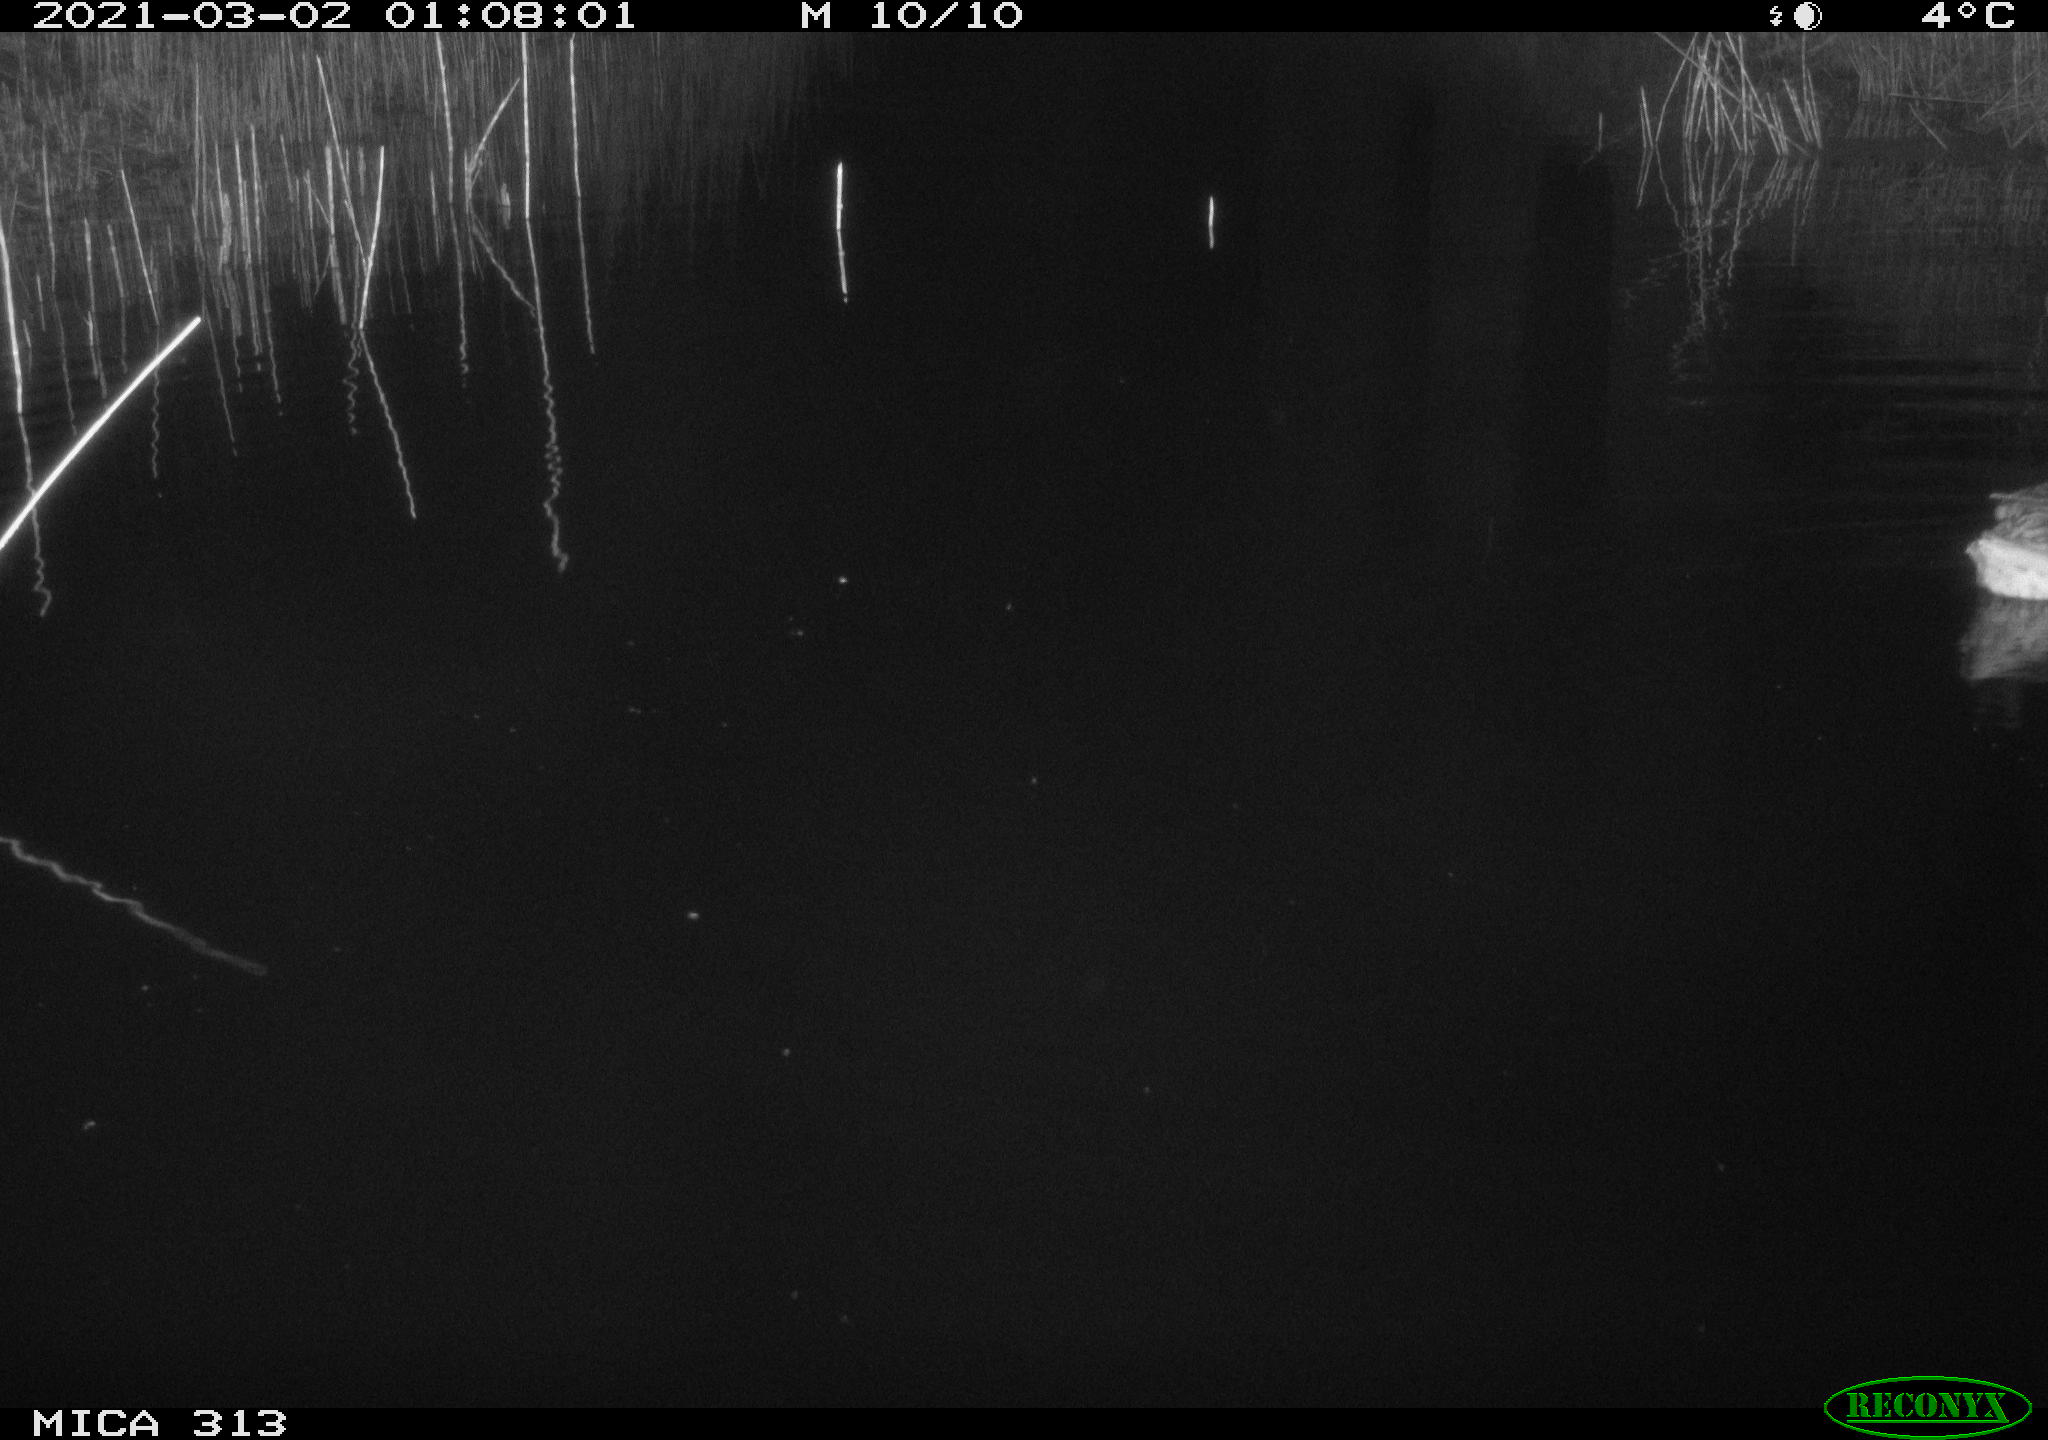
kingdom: Animalia
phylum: Chordata
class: Aves
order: Anseriformes
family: Anatidae
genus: Anas
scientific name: Anas
